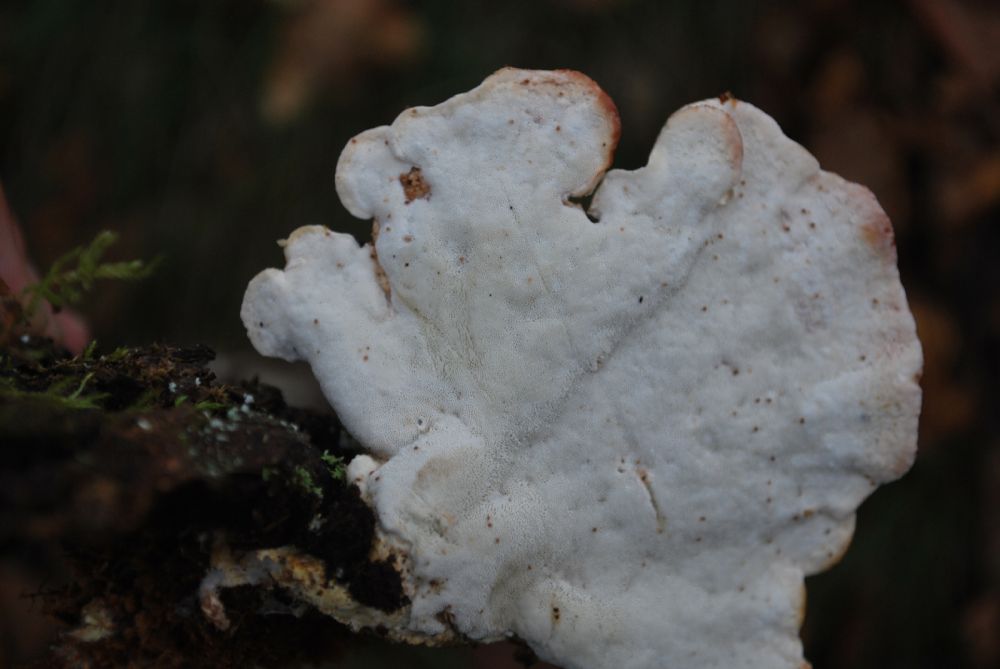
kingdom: Fungi
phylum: Basidiomycota
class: Agaricomycetes
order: Polyporales
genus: Calcipostia
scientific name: Calcipostia guttulata
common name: dråbe-kødporesvamp
